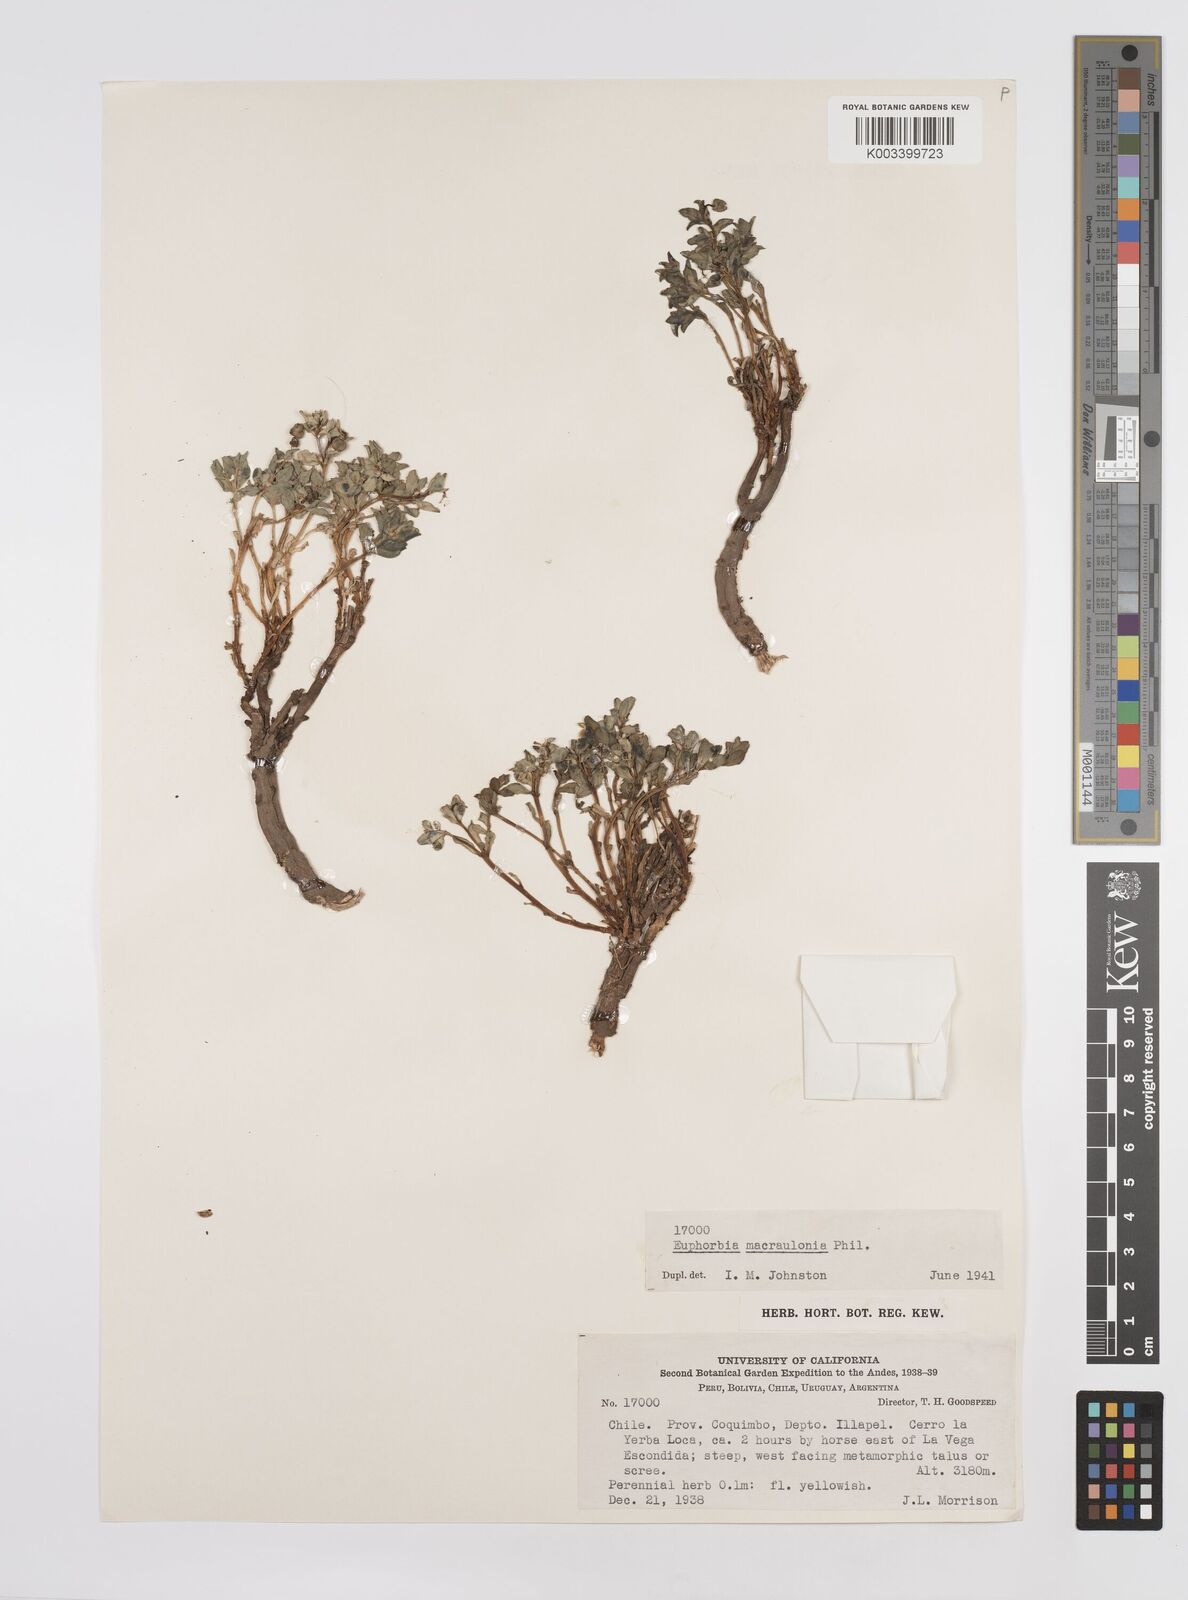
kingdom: Plantae
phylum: Tracheophyta
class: Magnoliopsida
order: Malpighiales
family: Euphorbiaceae
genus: Euphorbia
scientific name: Euphorbia macraulonia
